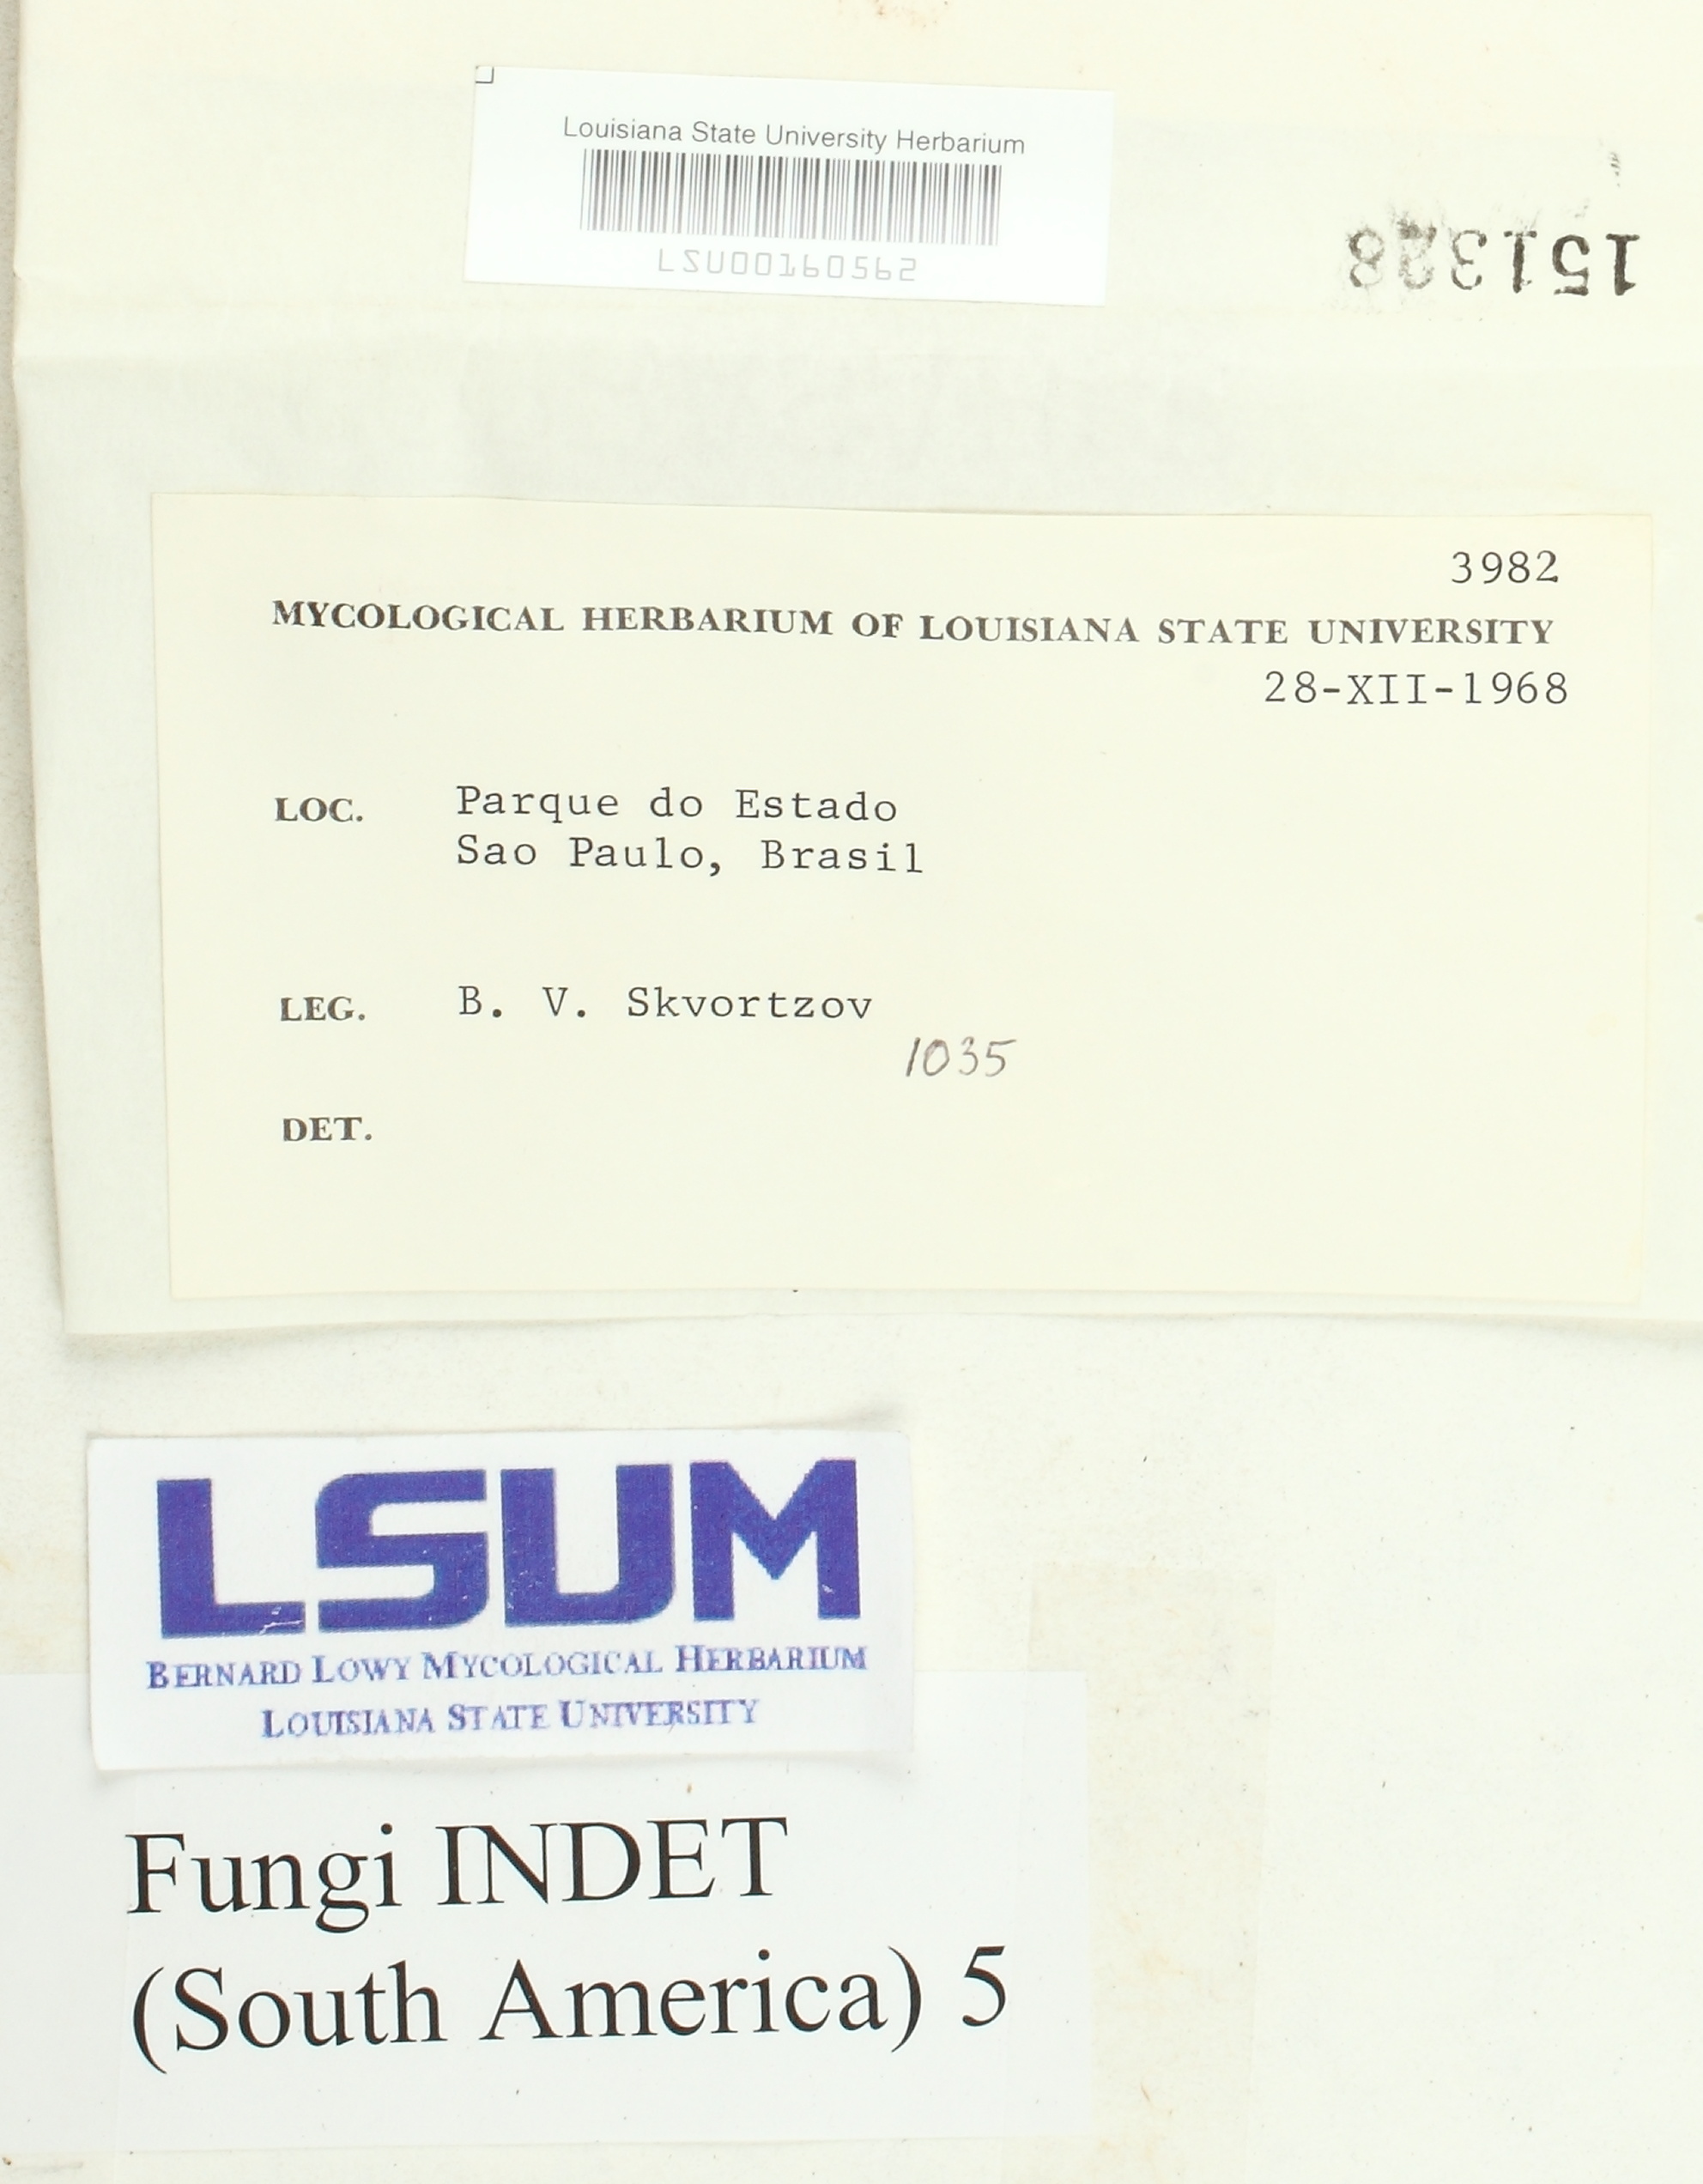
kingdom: Fungi
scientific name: Fungi
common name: Fungi
